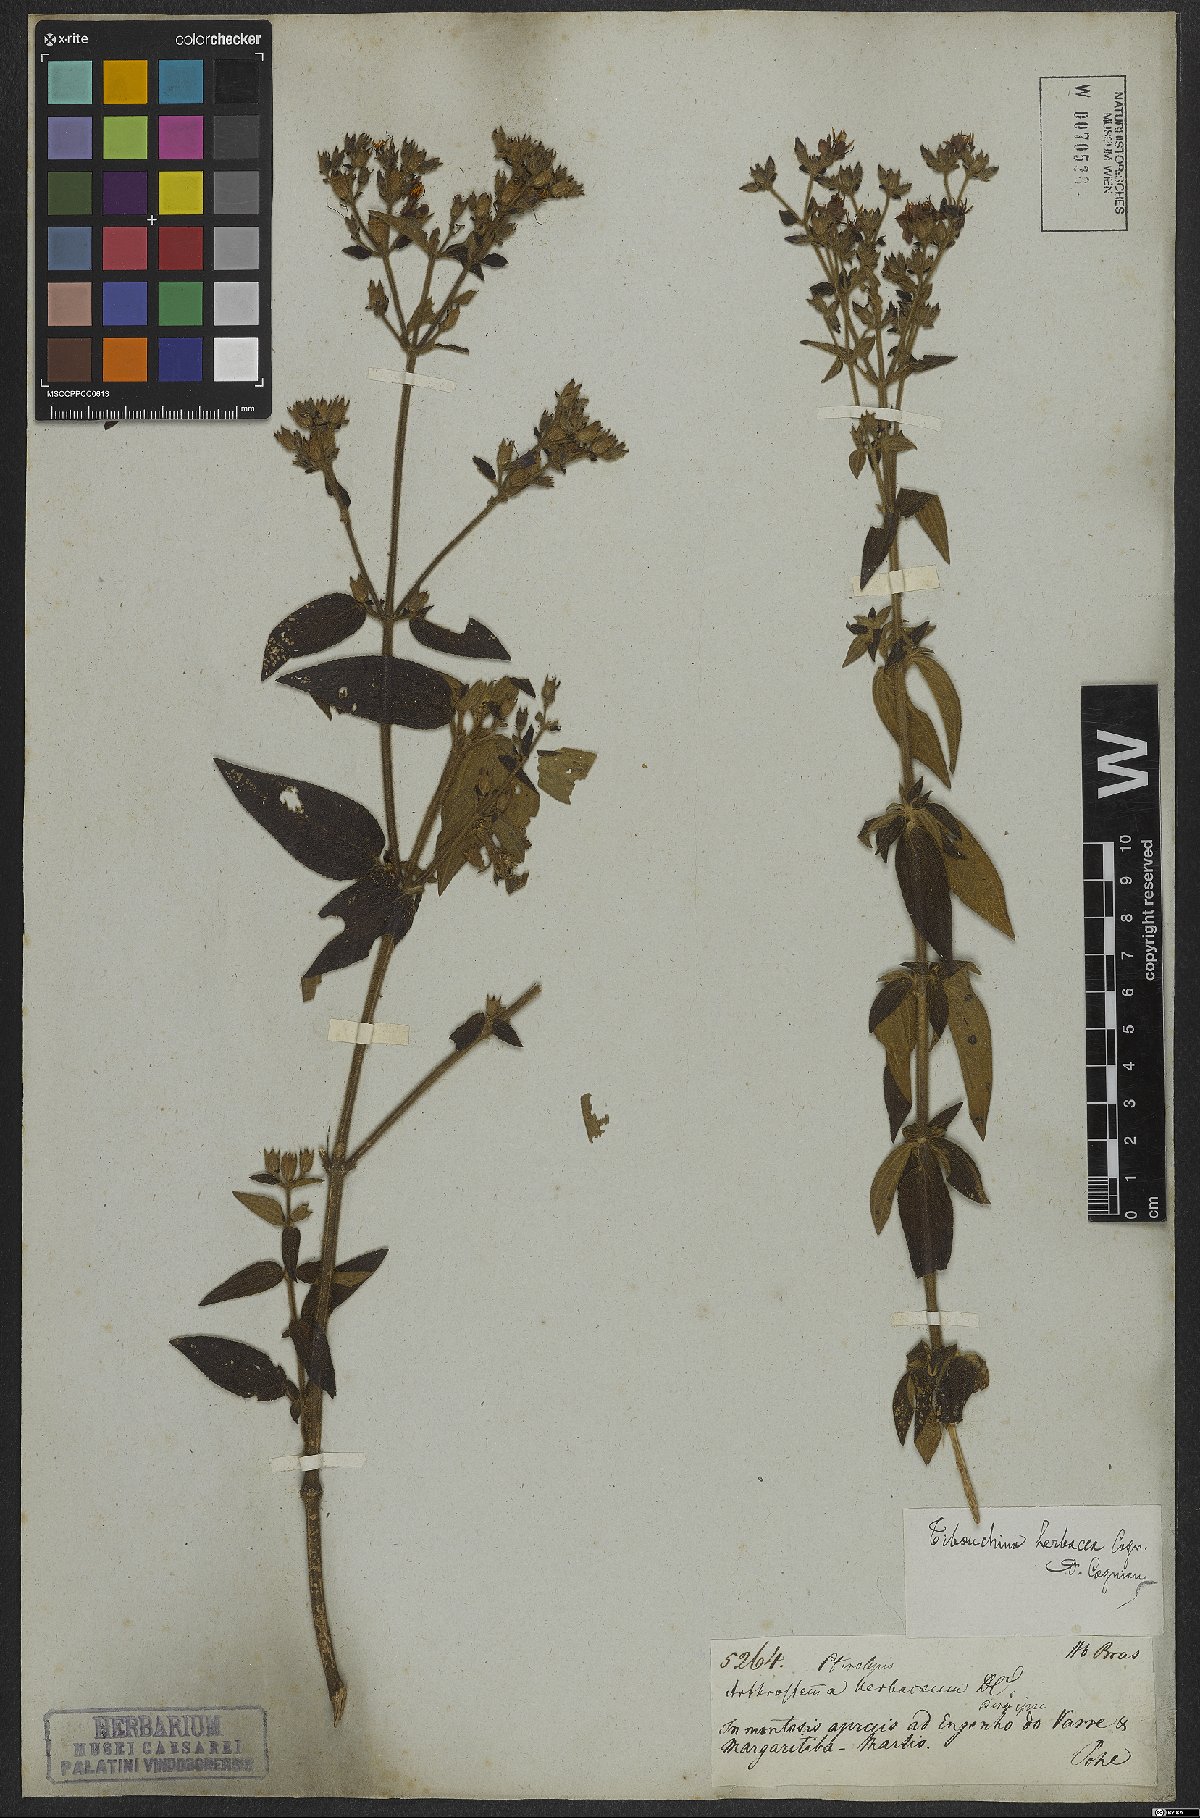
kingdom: Plantae
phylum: Tracheophyta
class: Magnoliopsida
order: Myrtales
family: Melastomataceae
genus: Chaetogastra
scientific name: Chaetogastra herbacea
